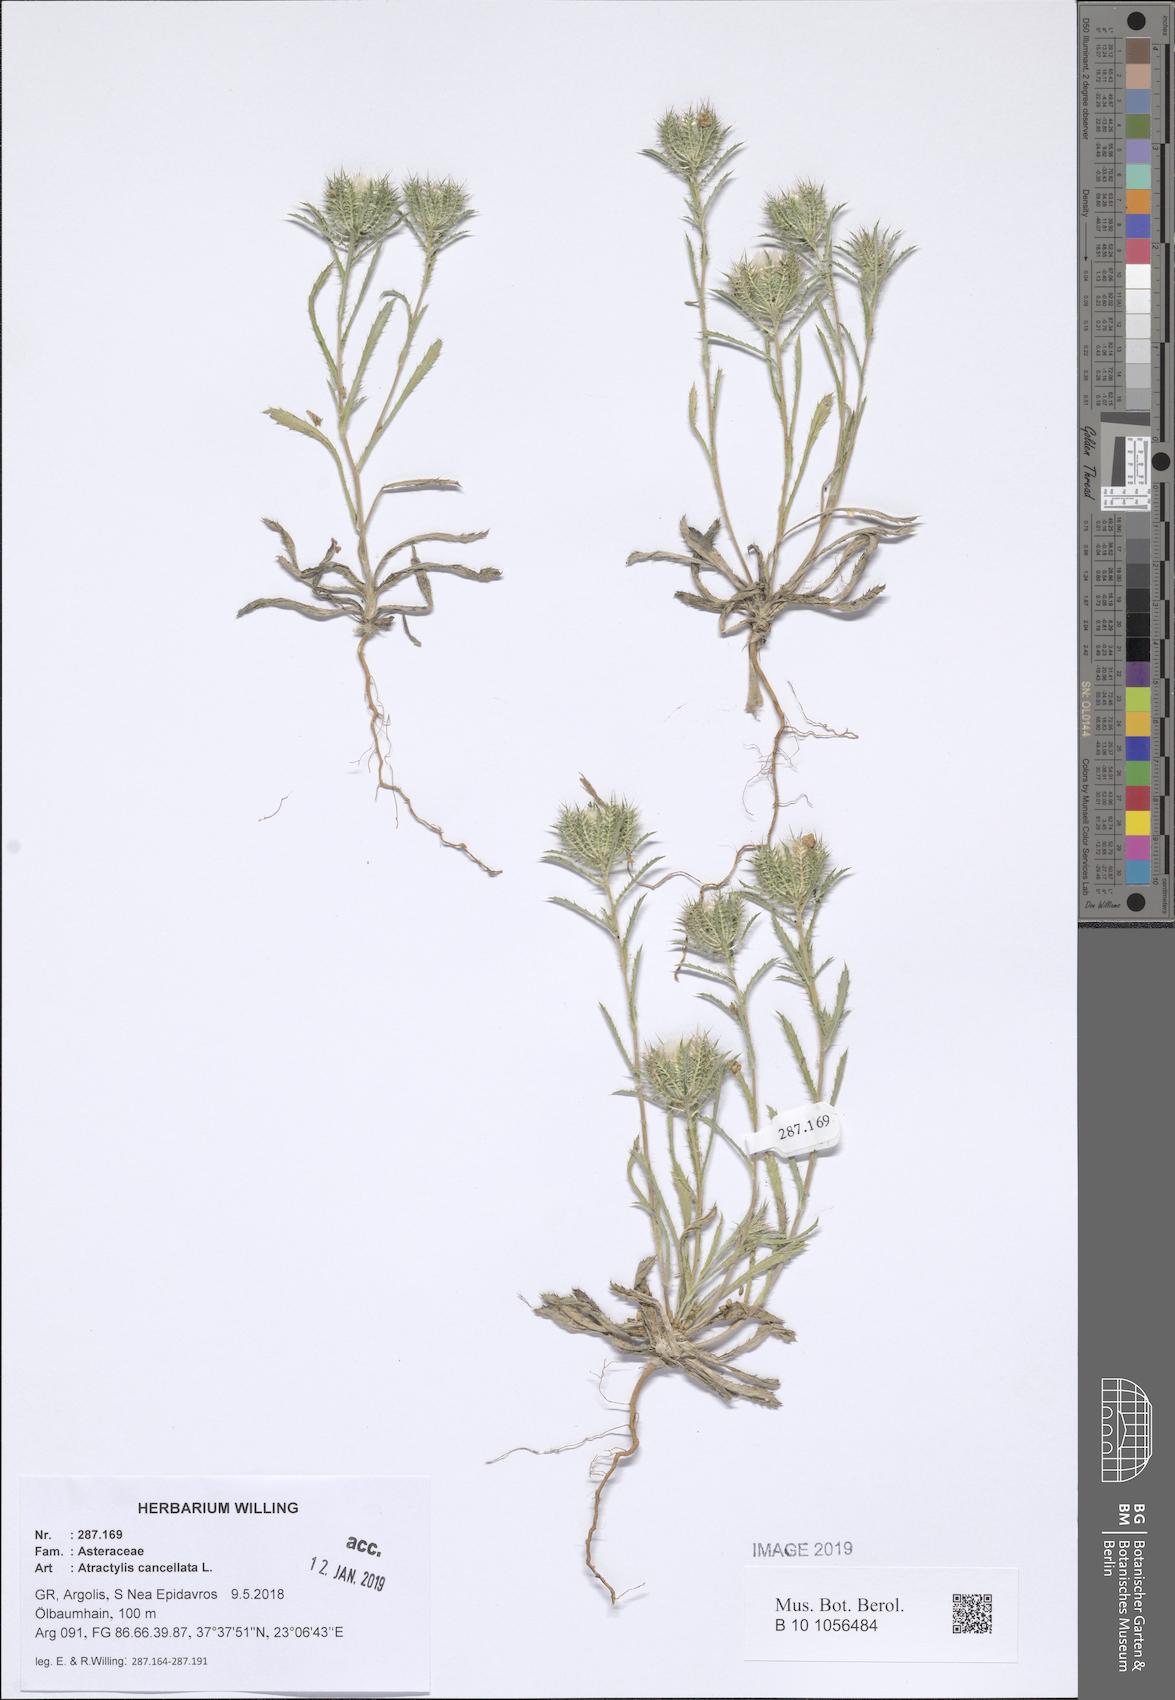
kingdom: Plantae
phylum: Tracheophyta
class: Magnoliopsida
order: Asterales
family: Asteraceae
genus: Atractylis
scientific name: Atractylis cancellata
